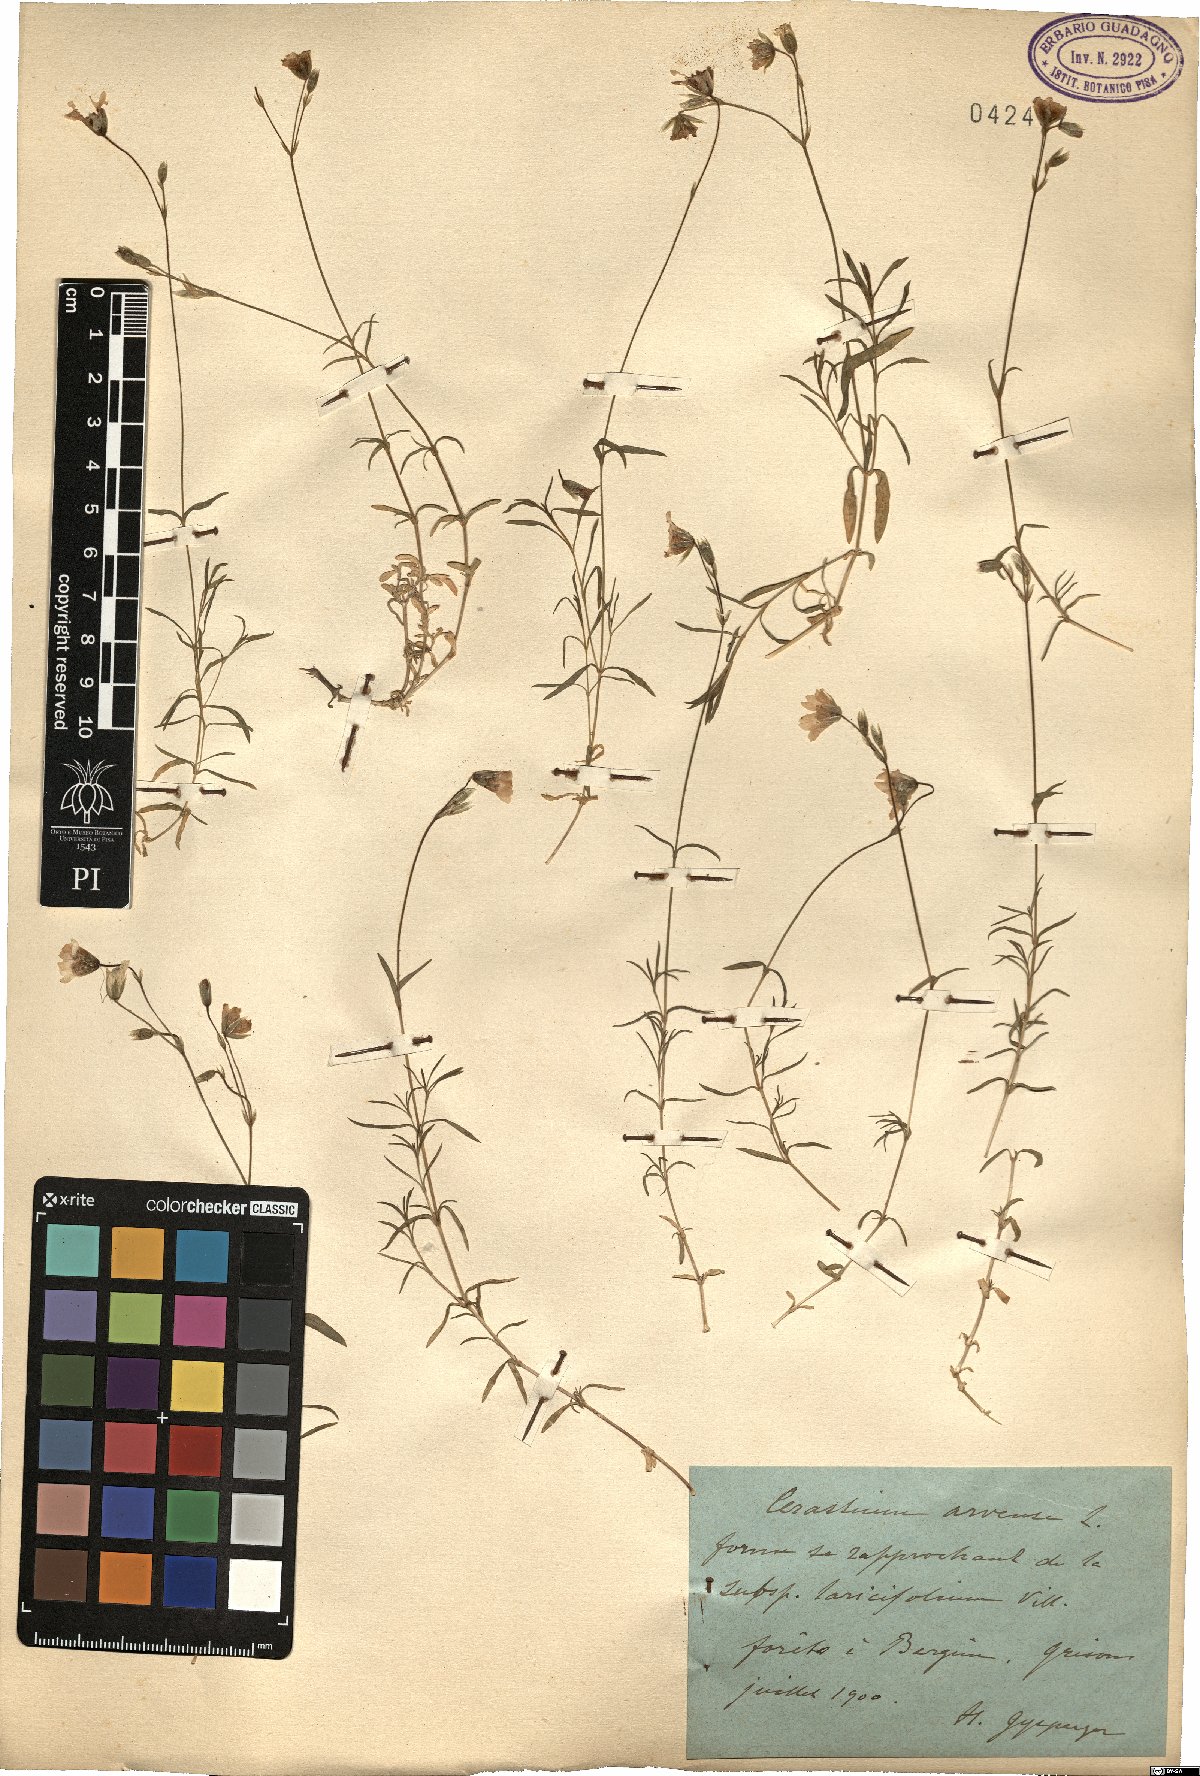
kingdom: Plantae
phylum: Tracheophyta
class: Magnoliopsida
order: Caryophyllales
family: Caryophyllaceae
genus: Cerastium
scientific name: Cerastium arvense
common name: Field mouse-ear
